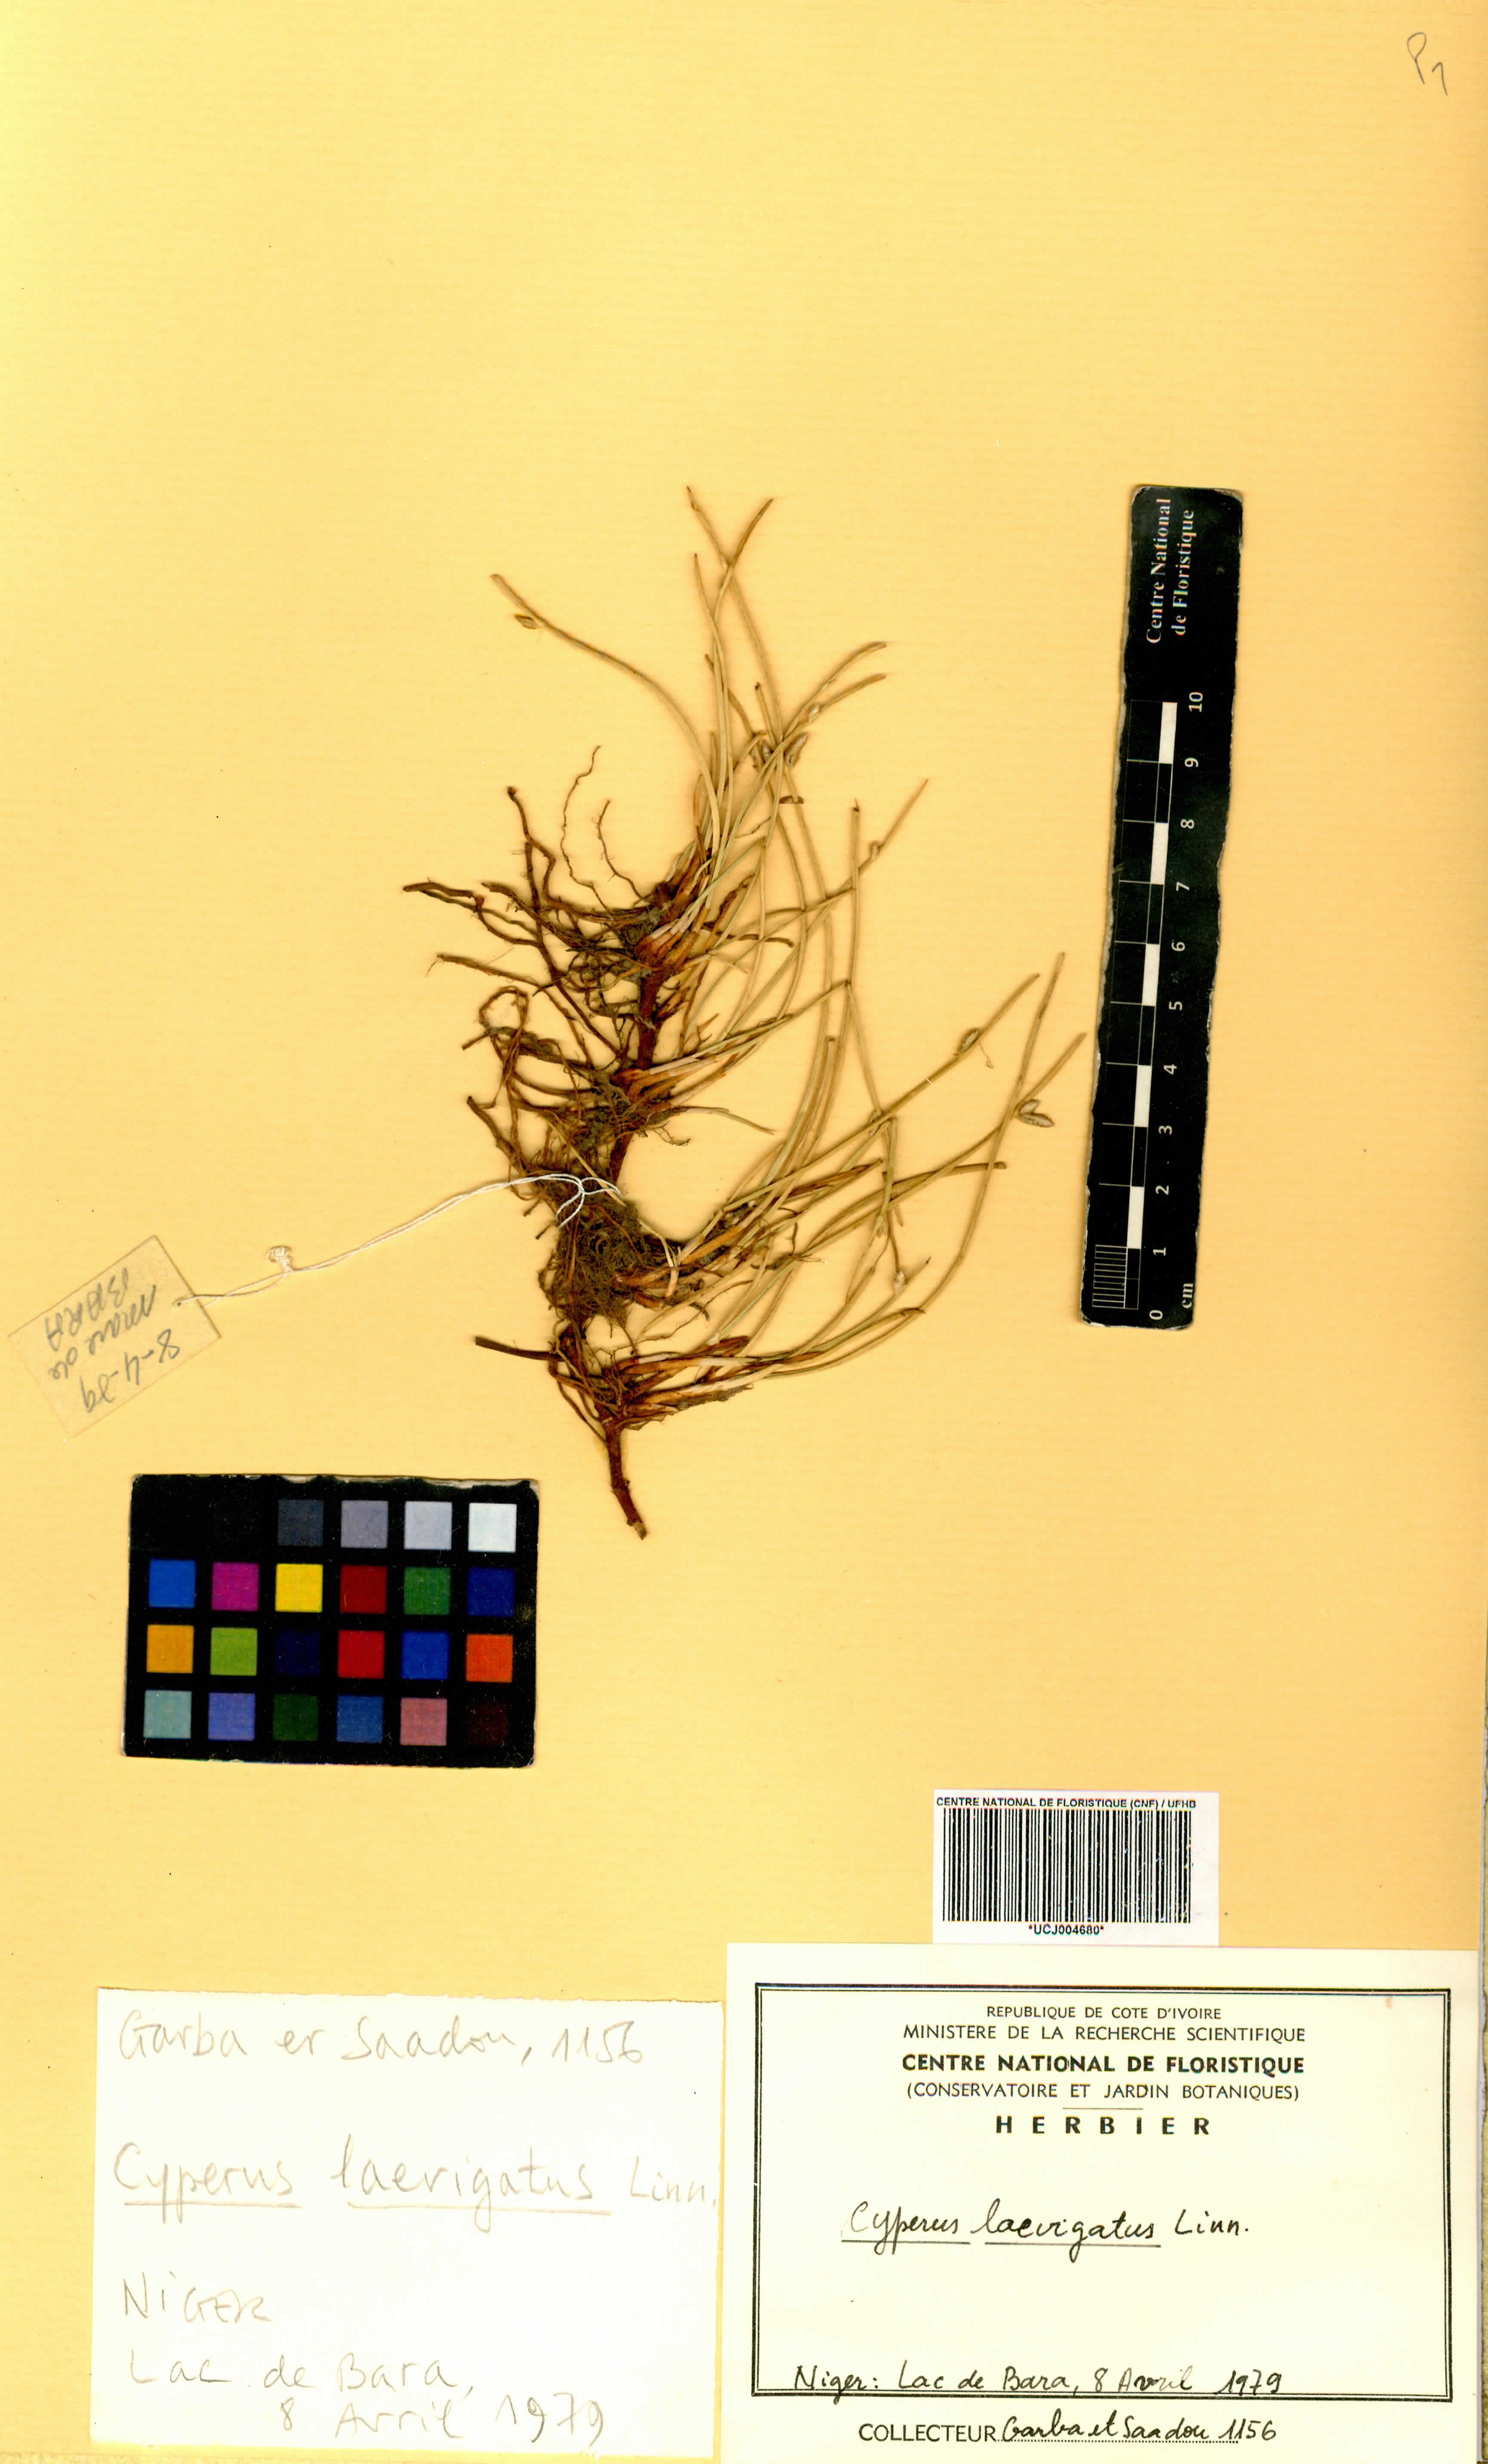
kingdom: Plantae
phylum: Tracheophyta
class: Liliopsida
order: Poales
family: Cyperaceae
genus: Cyperus
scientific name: Cyperus laevigatus
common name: Smooth flat sedge
